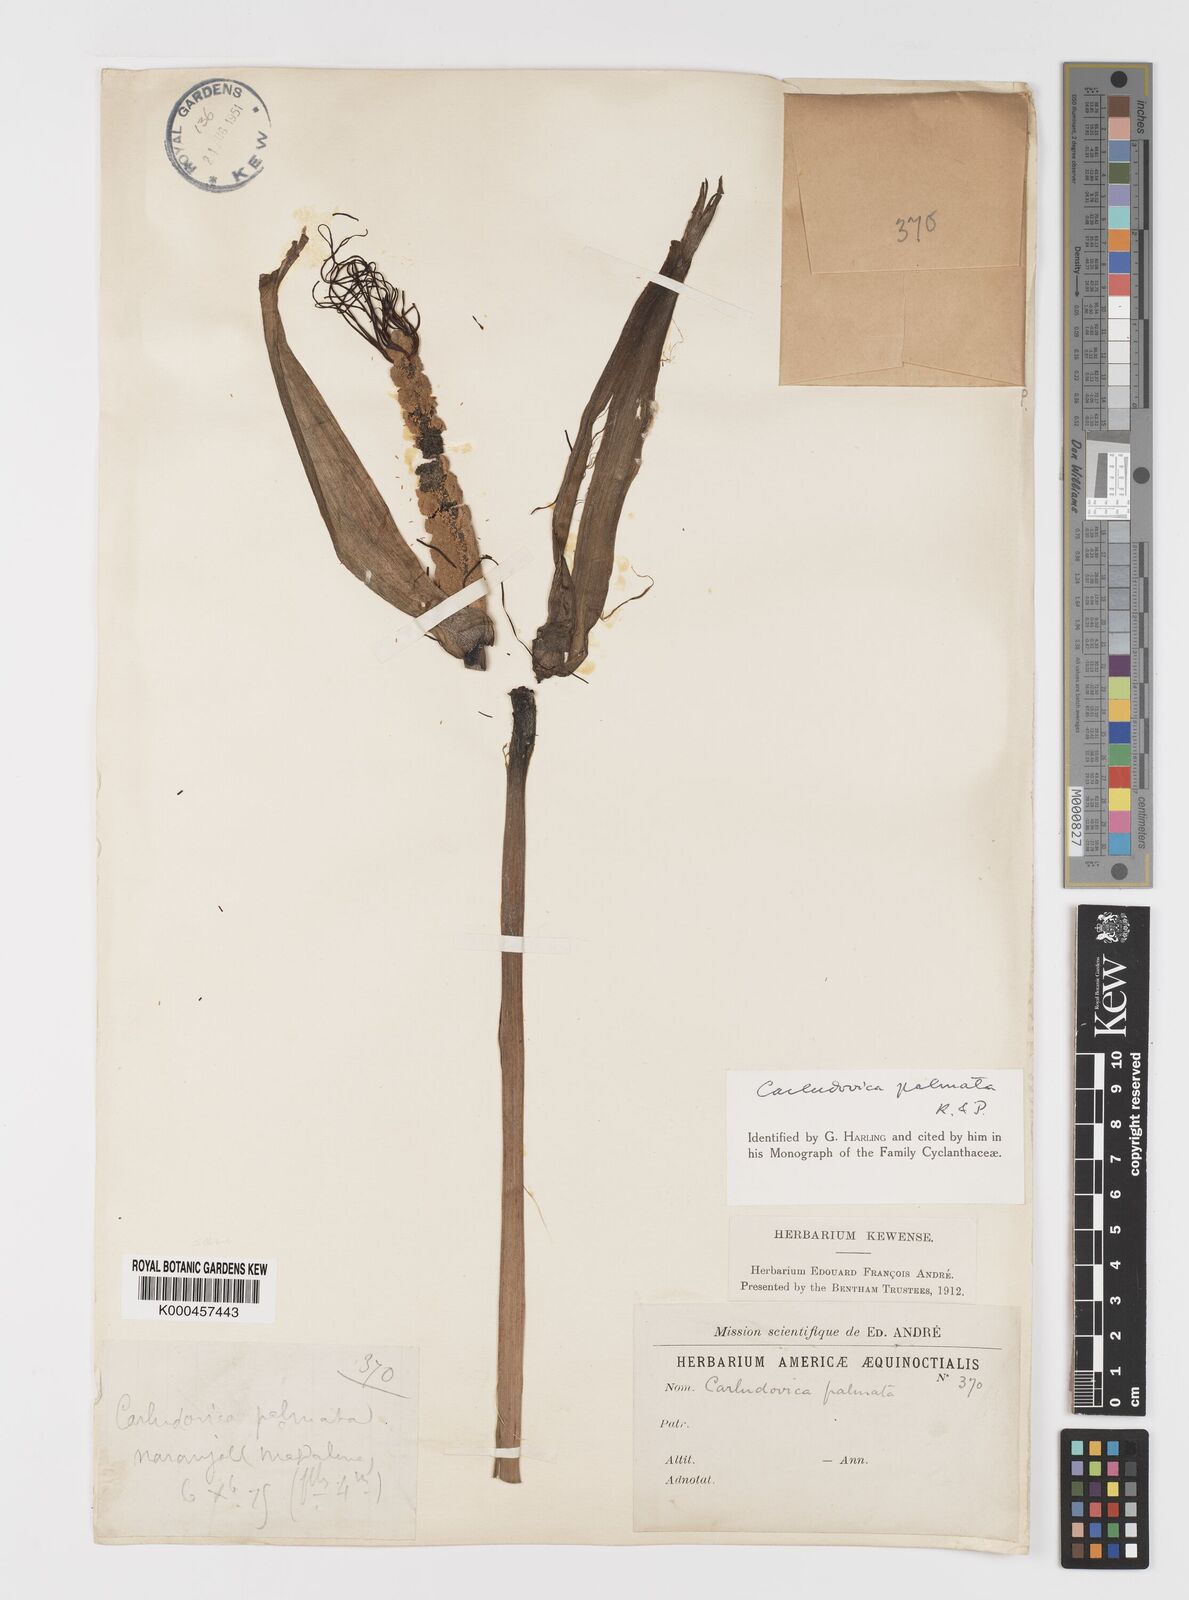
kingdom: Plantae
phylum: Tracheophyta
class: Liliopsida
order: Pandanales
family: Cyclanthaceae
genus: Carludovica
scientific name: Carludovica palmata
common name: Panama hat plant
